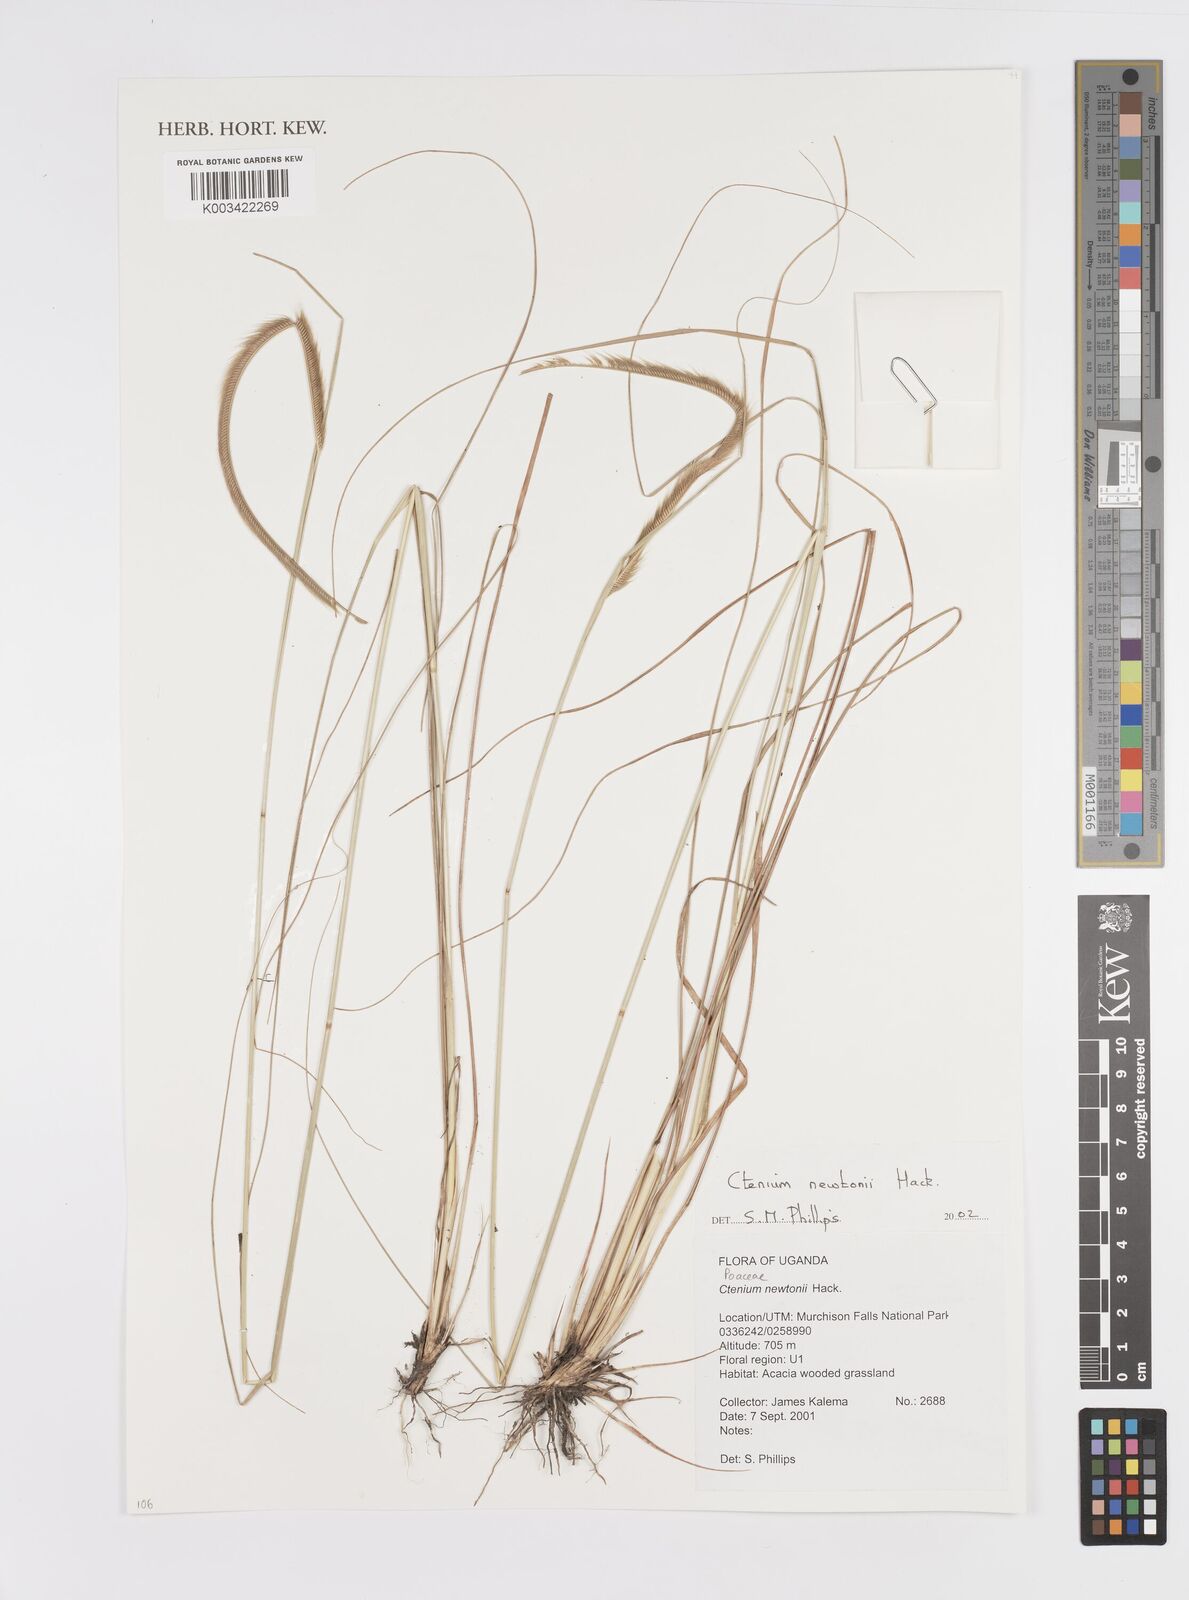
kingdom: Plantae
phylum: Tracheophyta
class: Liliopsida
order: Poales
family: Poaceae
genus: Ctenium
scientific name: Ctenium newtonii
